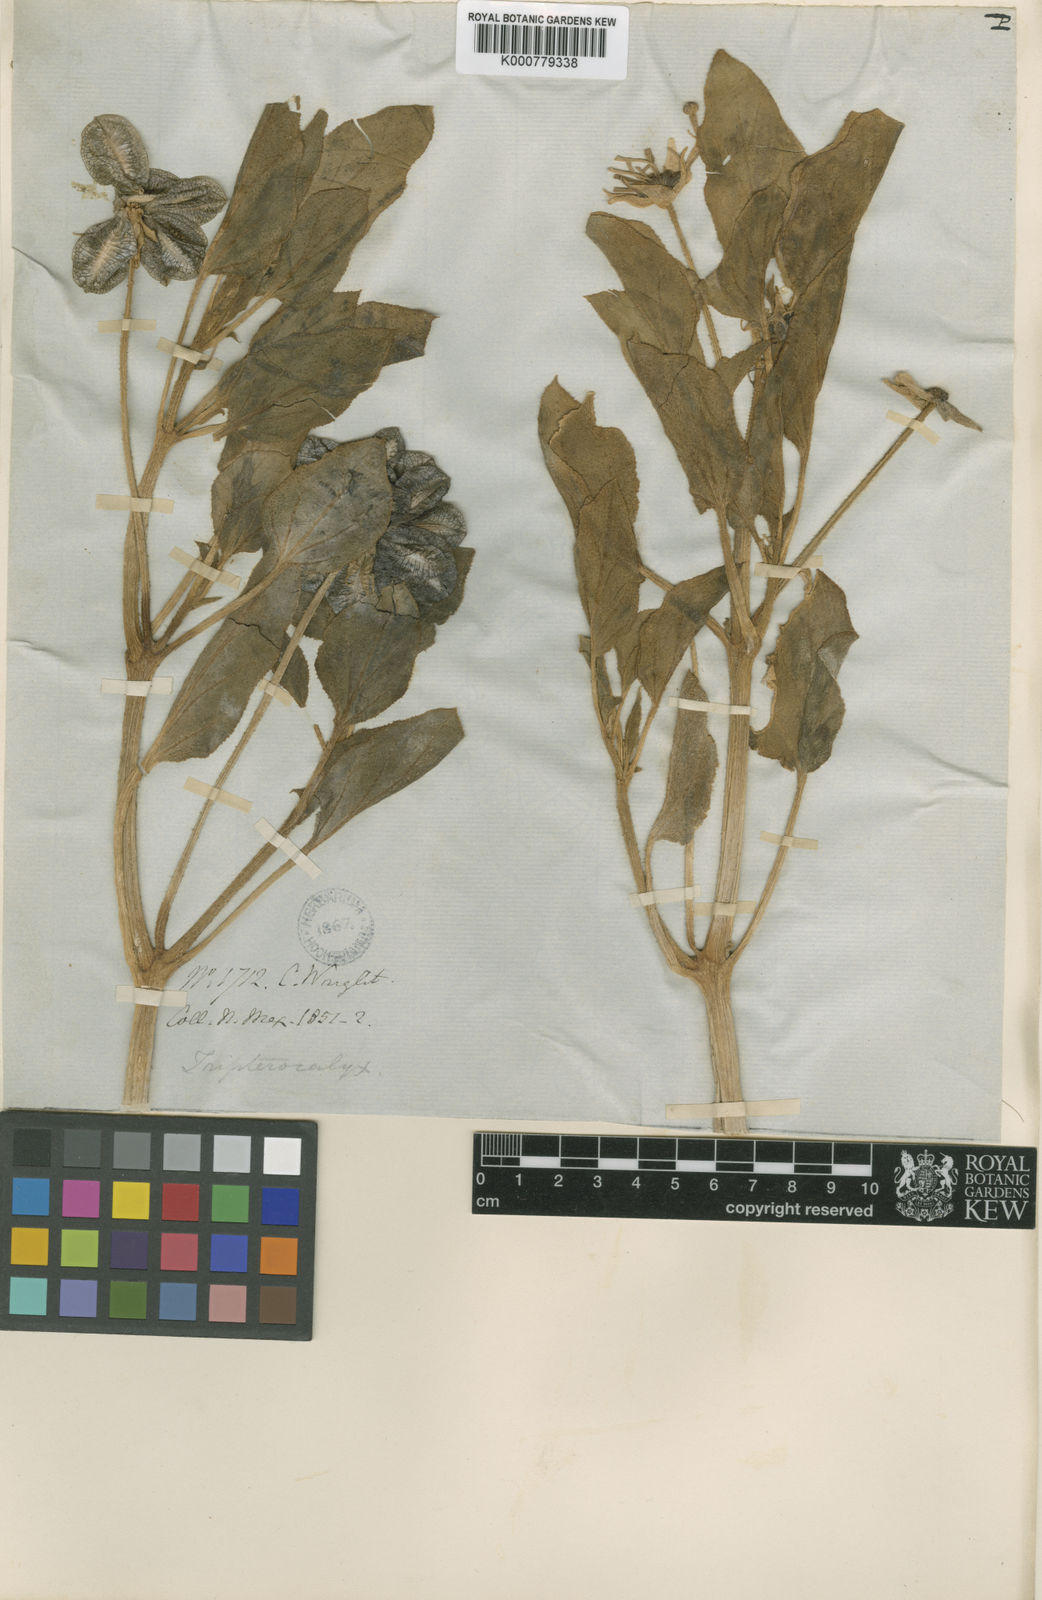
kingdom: Plantae
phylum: Tracheophyta
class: Magnoliopsida
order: Caryophyllales
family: Nyctaginaceae
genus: Tripterocalyx
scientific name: Tripterocalyx micranthus
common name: Small-flowered sand-verbena
